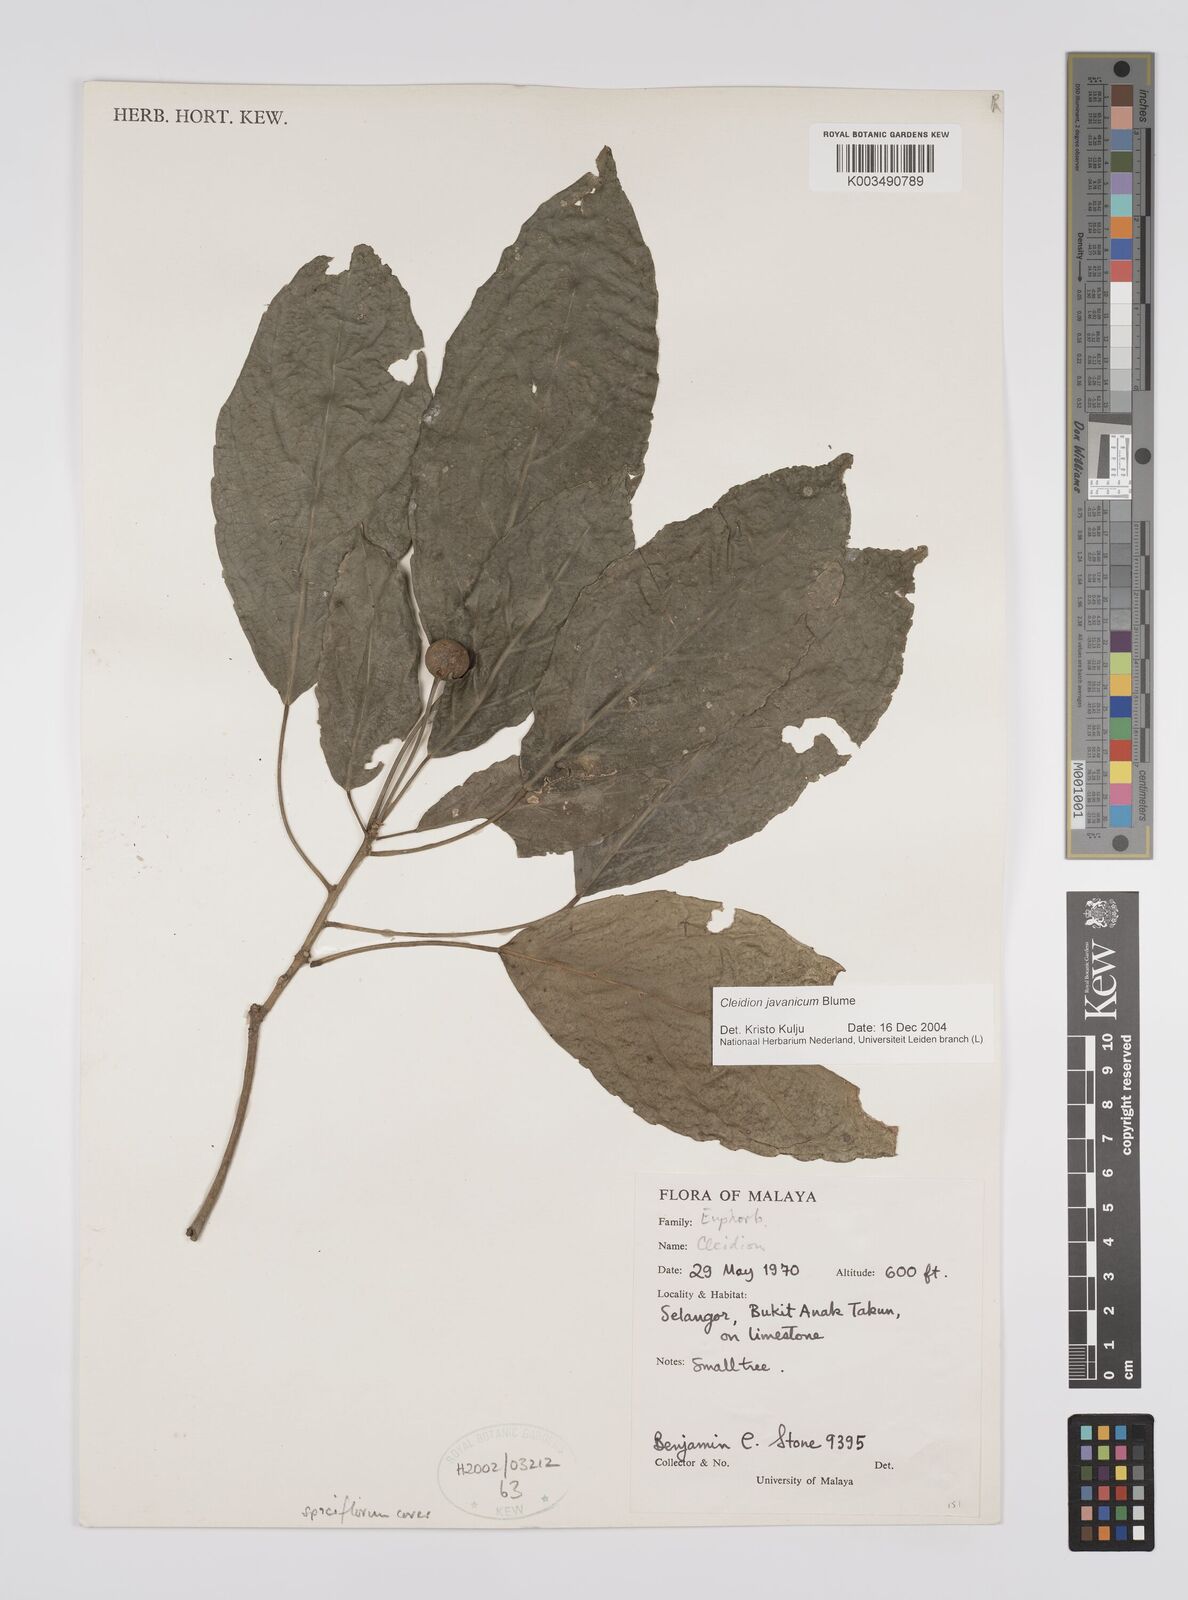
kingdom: Plantae
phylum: Tracheophyta
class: Magnoliopsida
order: Malpighiales
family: Euphorbiaceae
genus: Acalypha
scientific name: Acalypha spiciflora
